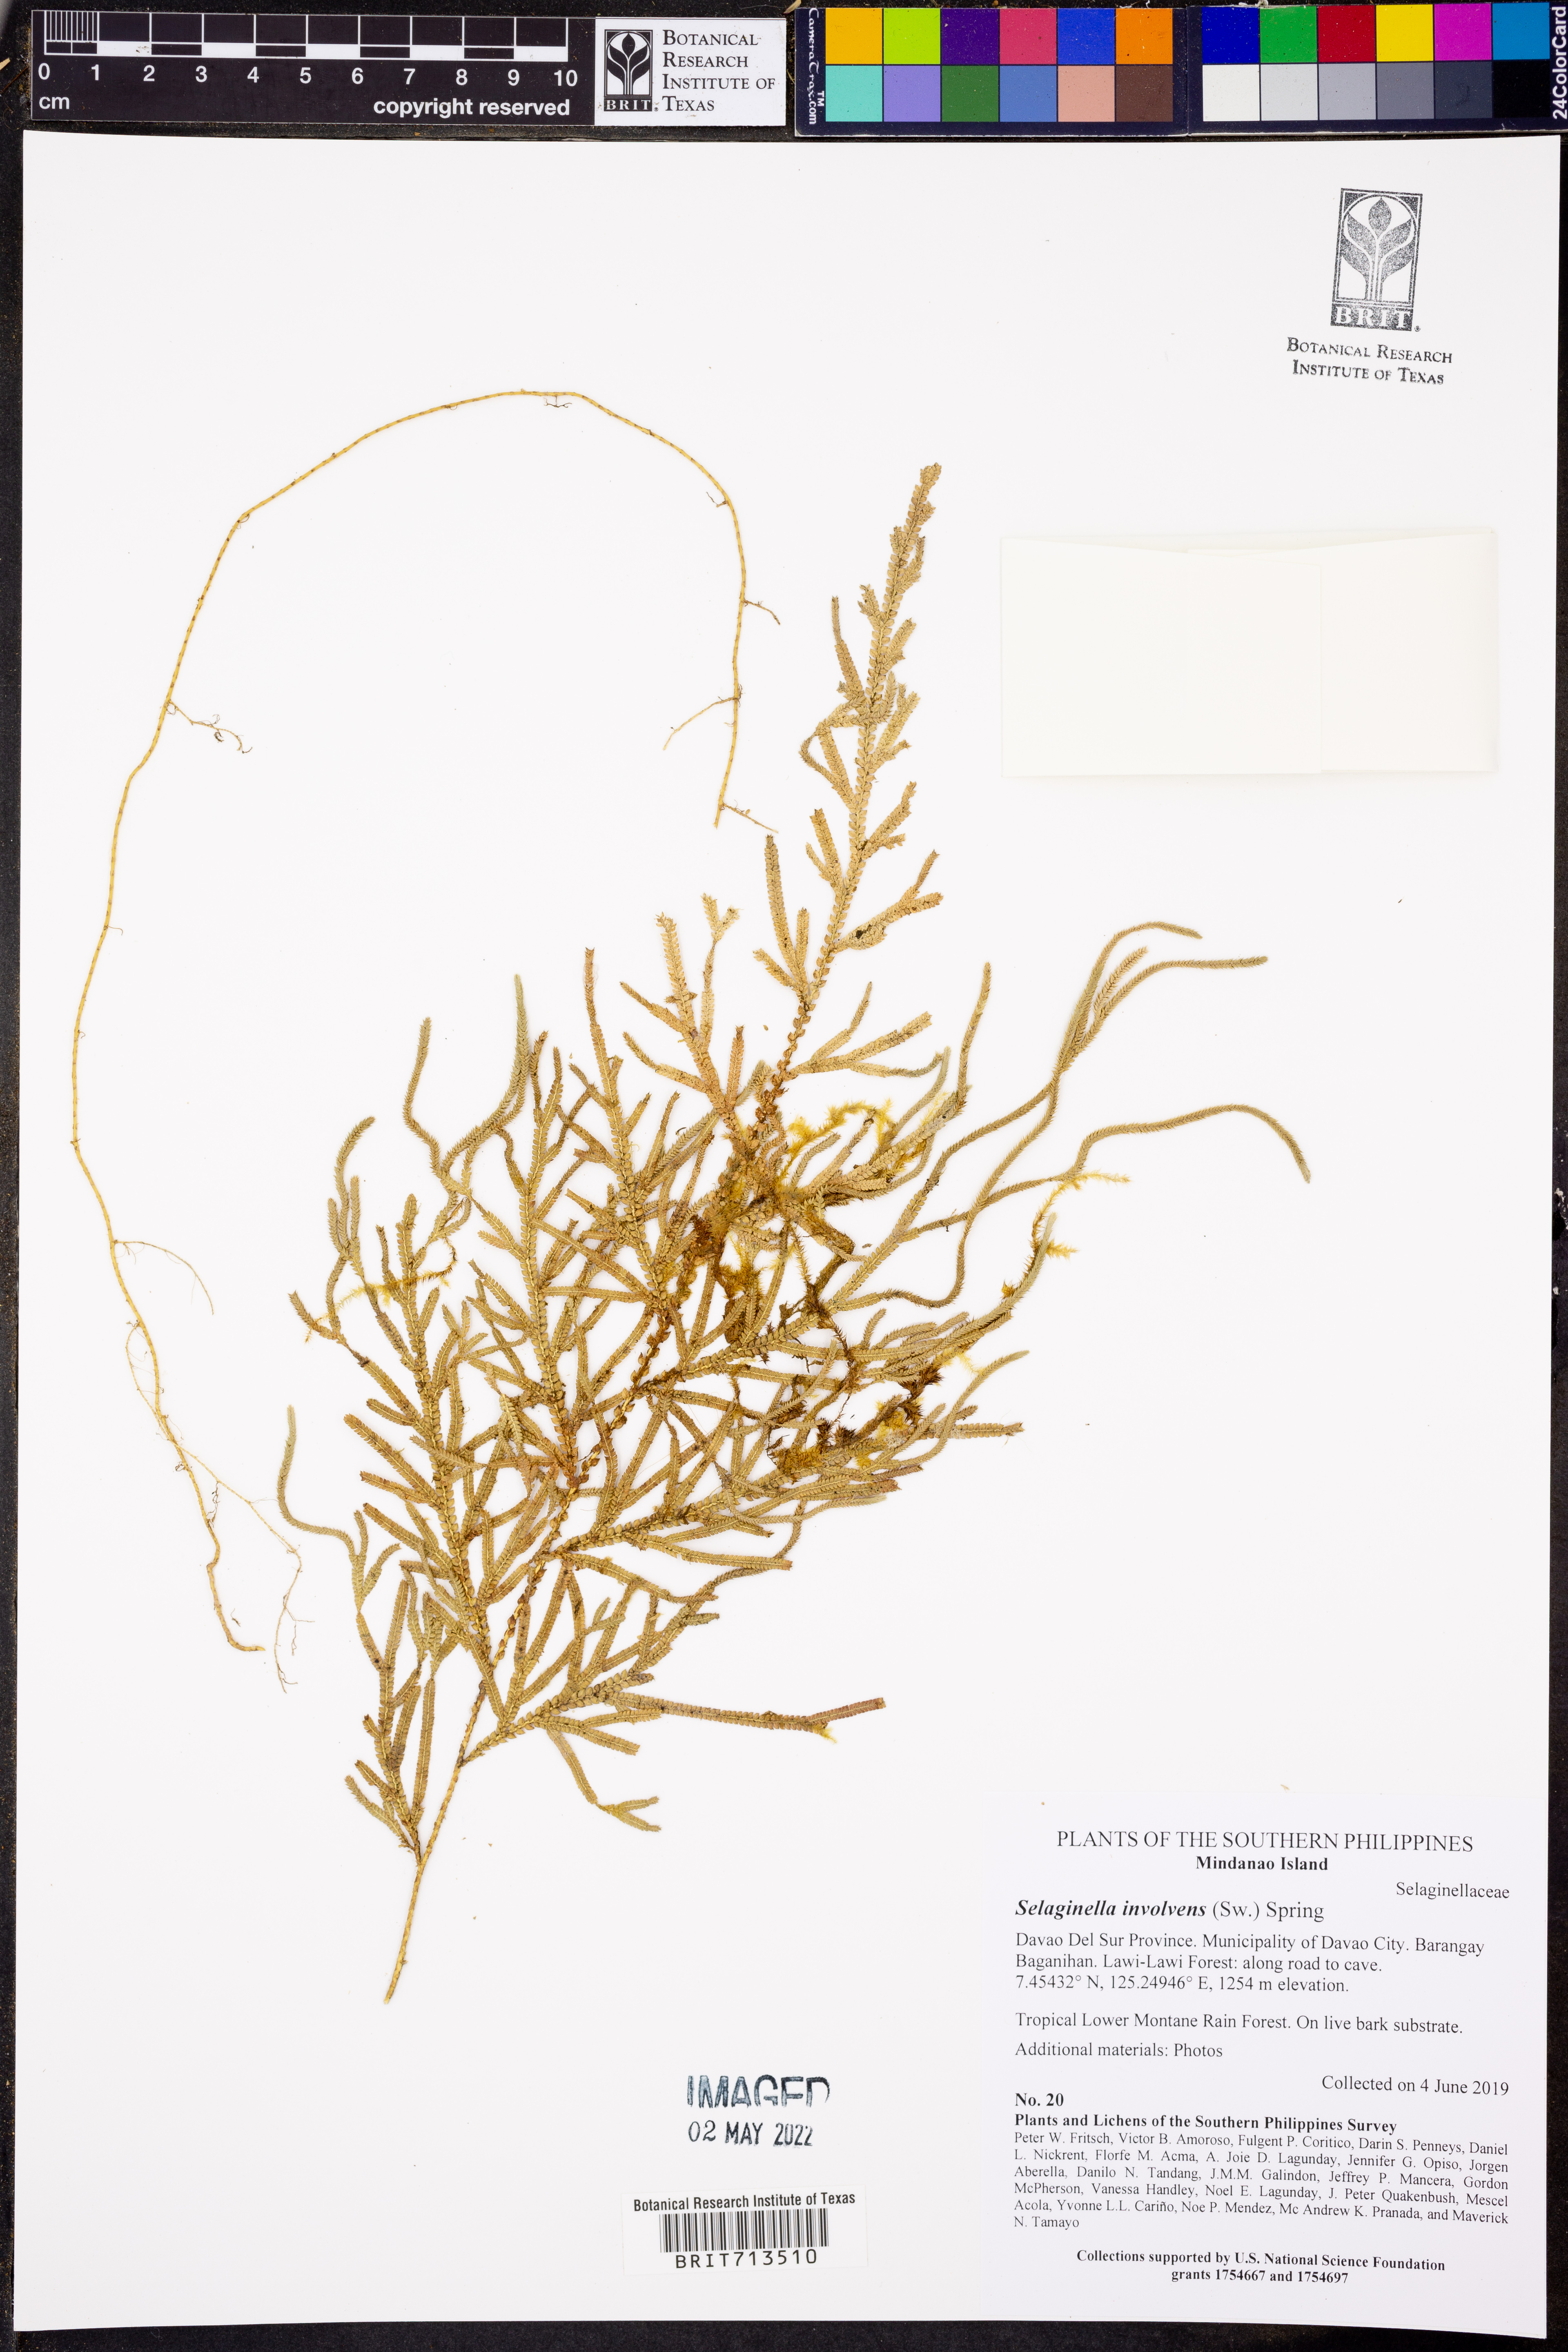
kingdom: Plantae
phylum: Tracheophyta
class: Lycopodiopsida
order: Selaginellales
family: Selaginellaceae
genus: Selaginella
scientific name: Selaginella involvens
